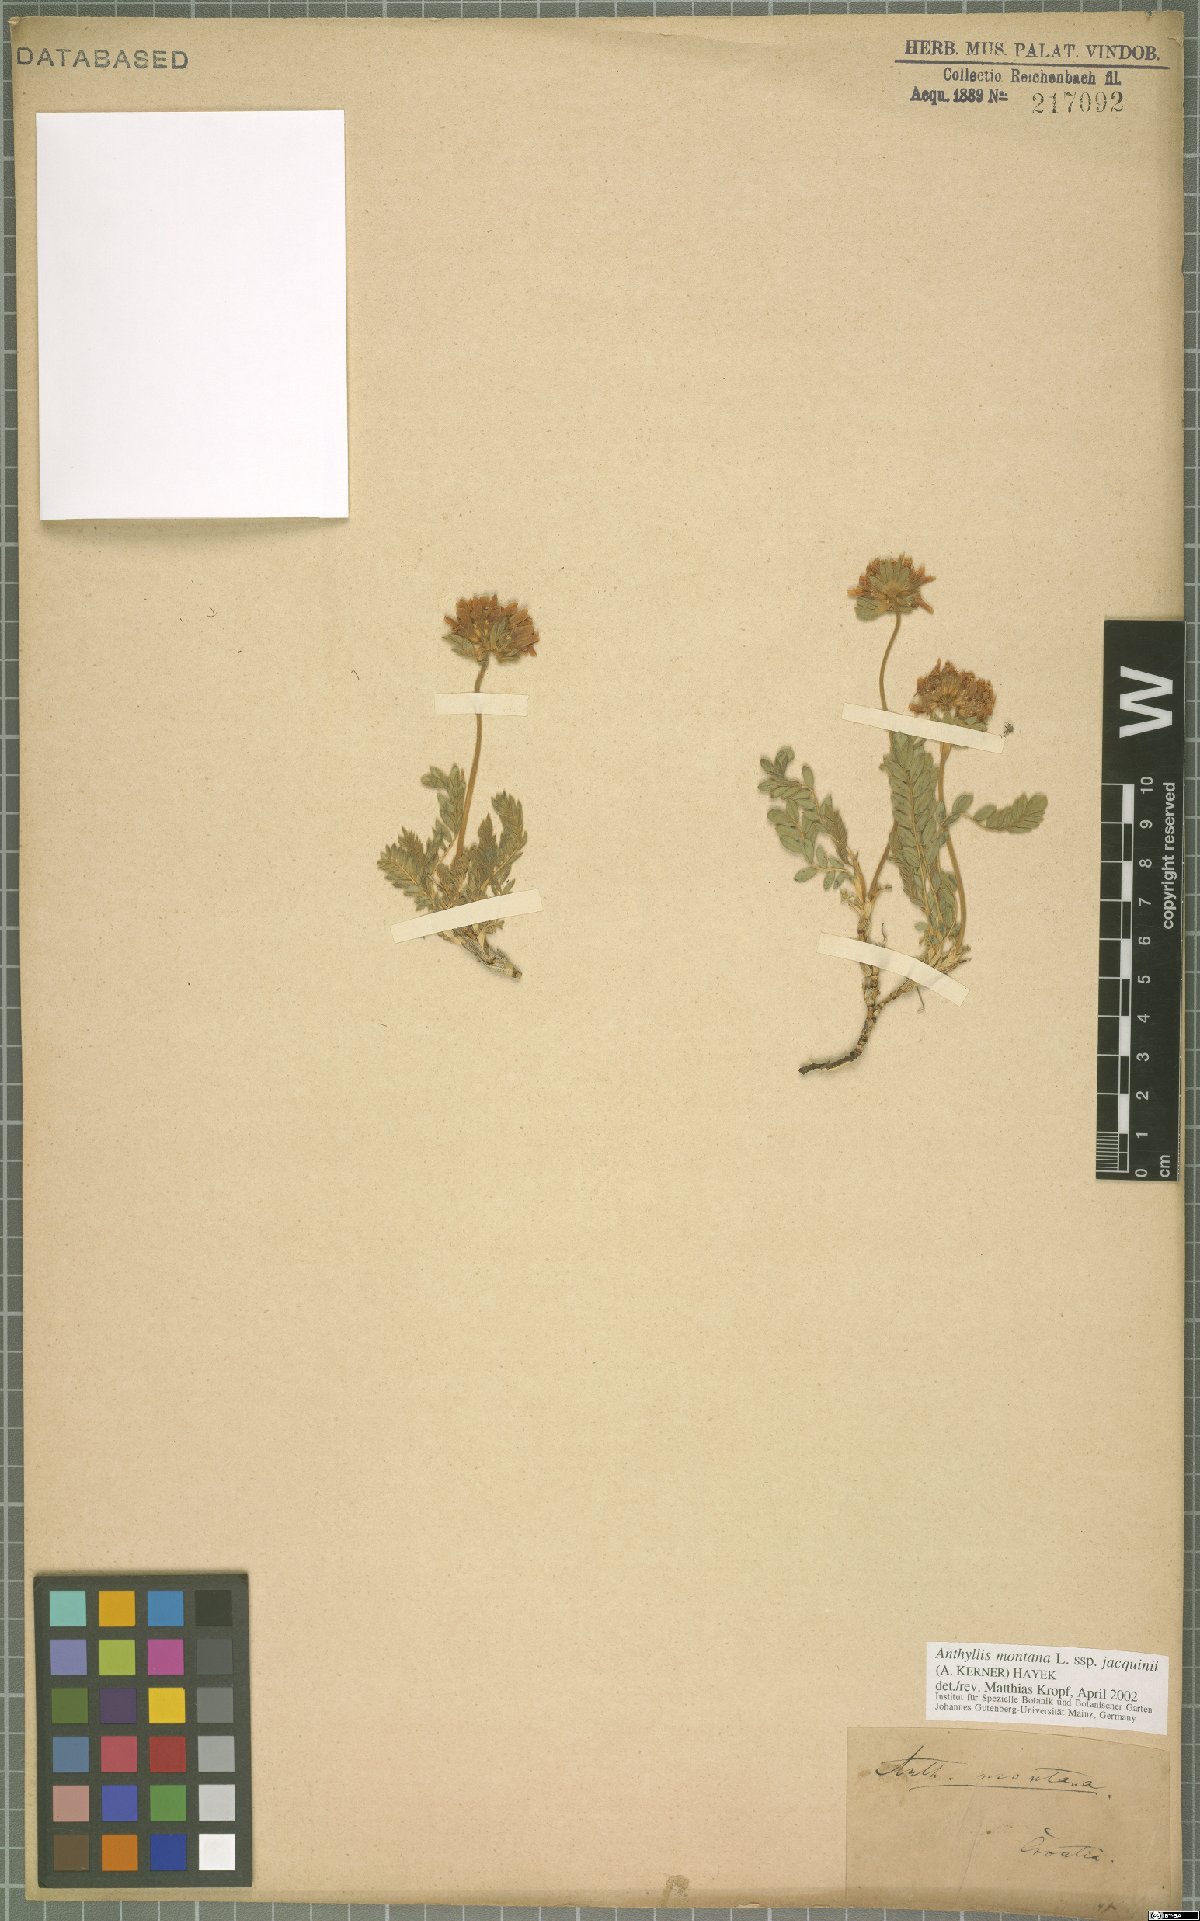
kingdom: Plantae
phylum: Tracheophyta
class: Magnoliopsida
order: Fabales
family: Fabaceae
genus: Anthyllis
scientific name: Anthyllis montana
